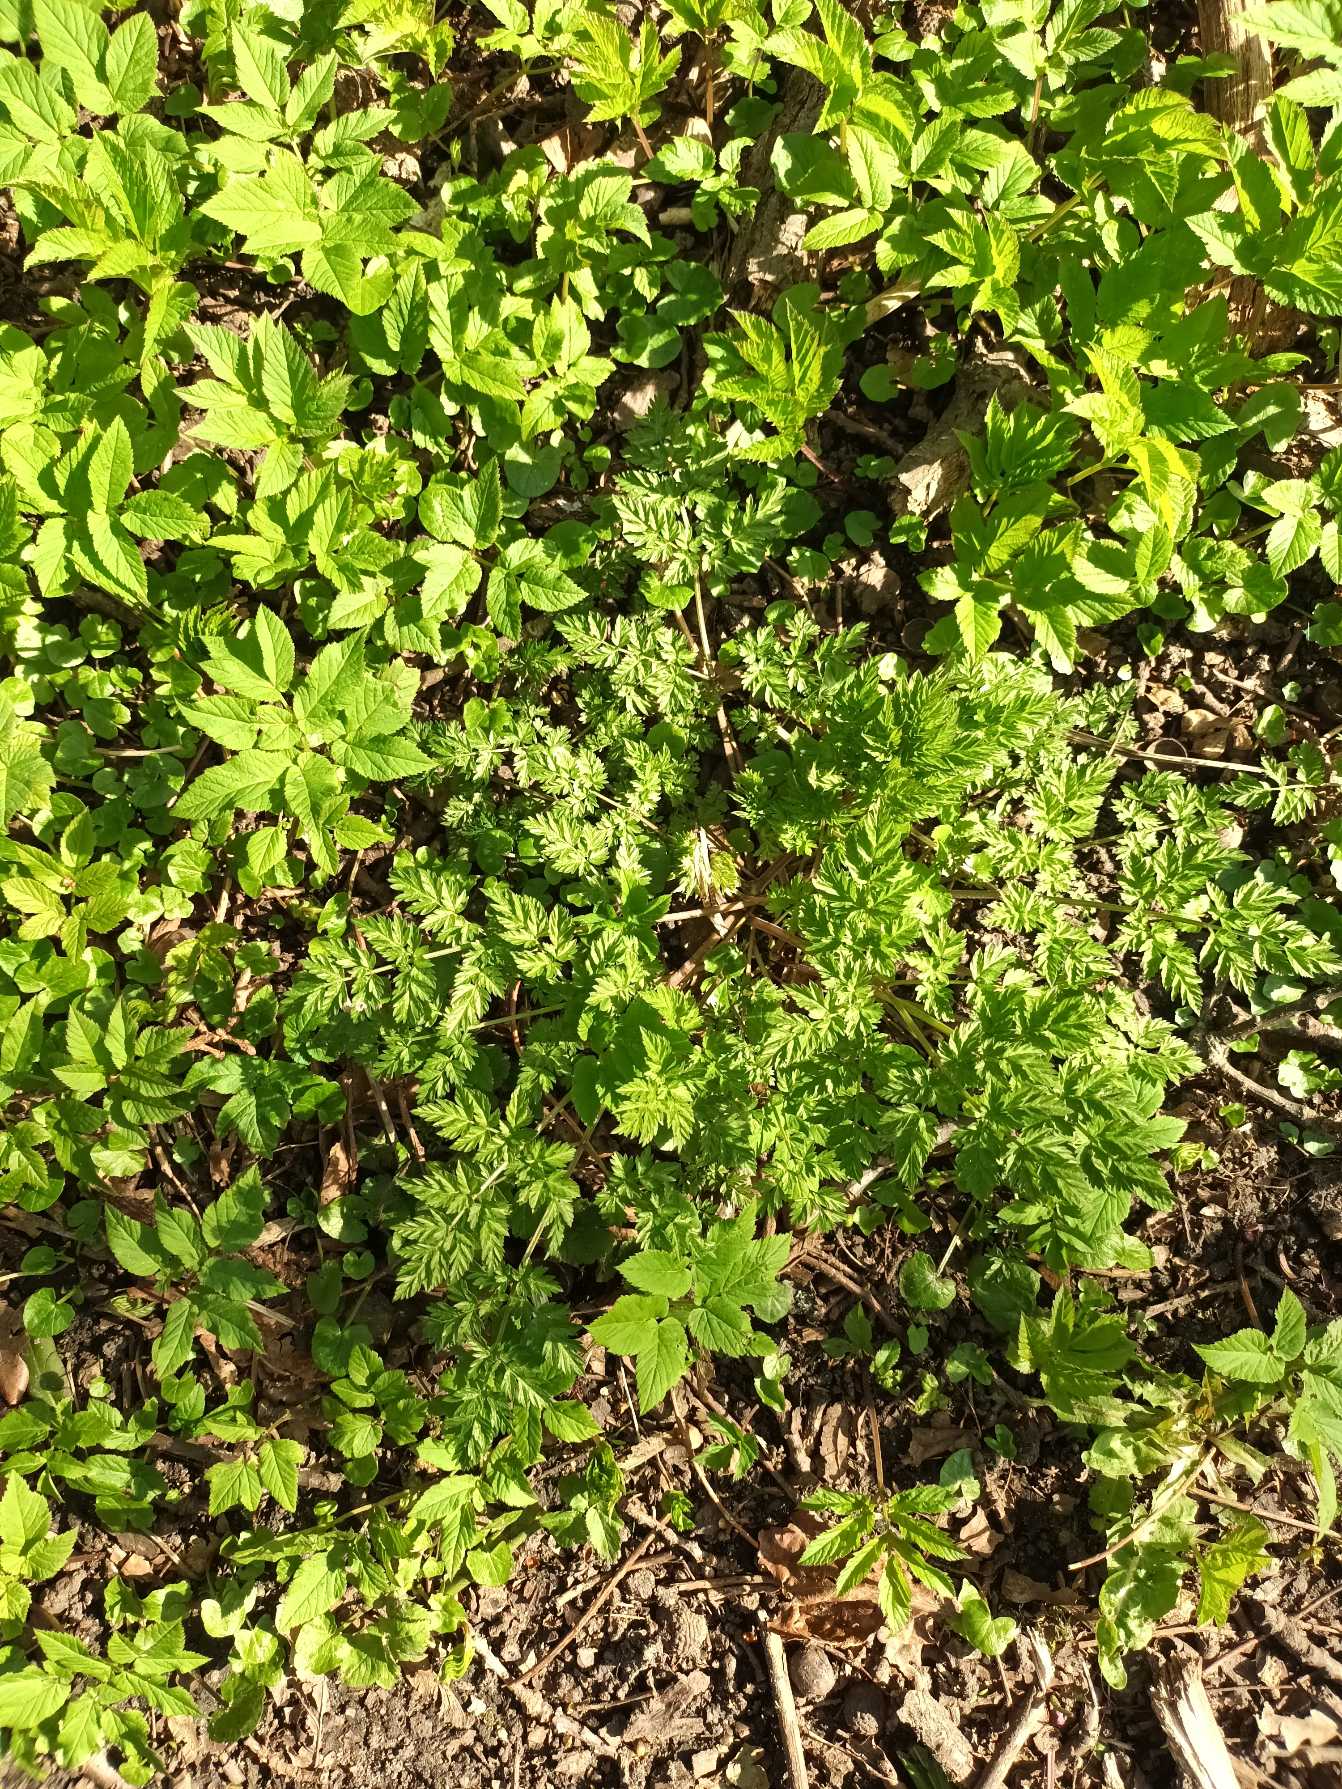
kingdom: Plantae
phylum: Tracheophyta
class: Magnoliopsida
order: Apiales
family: Apiaceae
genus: Anthriscus
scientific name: Anthriscus sylvestris
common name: Vild kørvel
